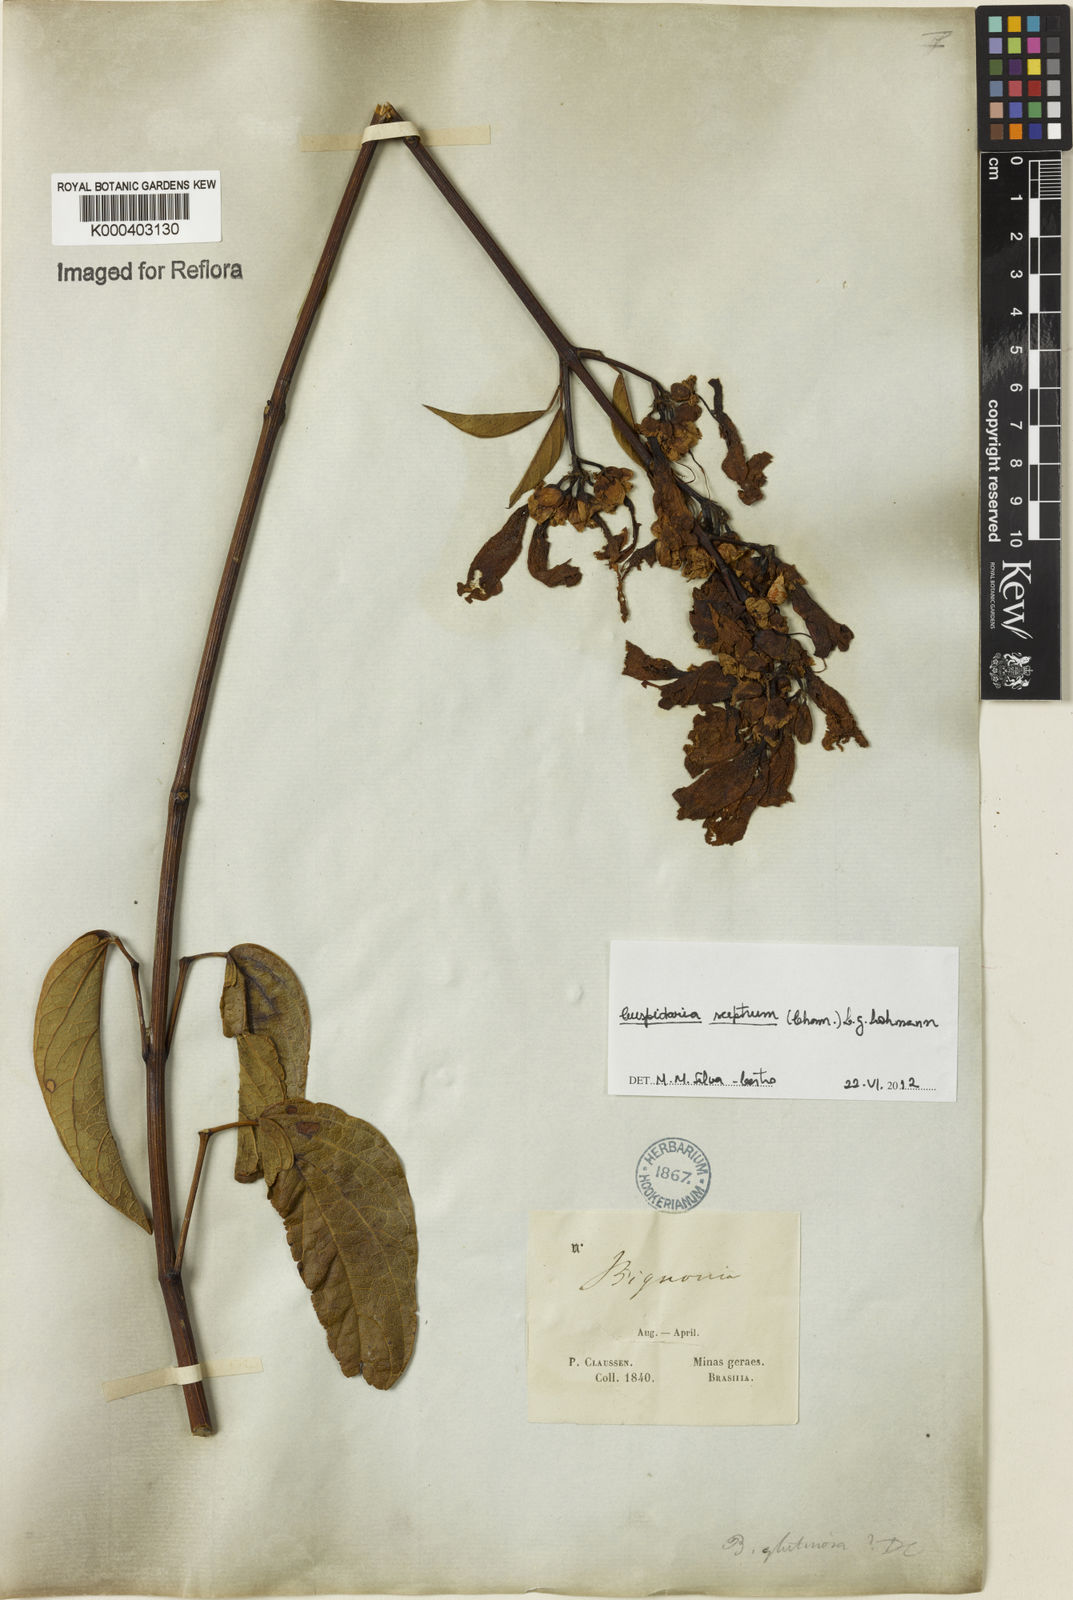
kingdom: Plantae
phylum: Tracheophyta
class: Magnoliopsida
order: Lamiales
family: Bignoniaceae
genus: Cuspidaria
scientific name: Cuspidaria sceptrum
